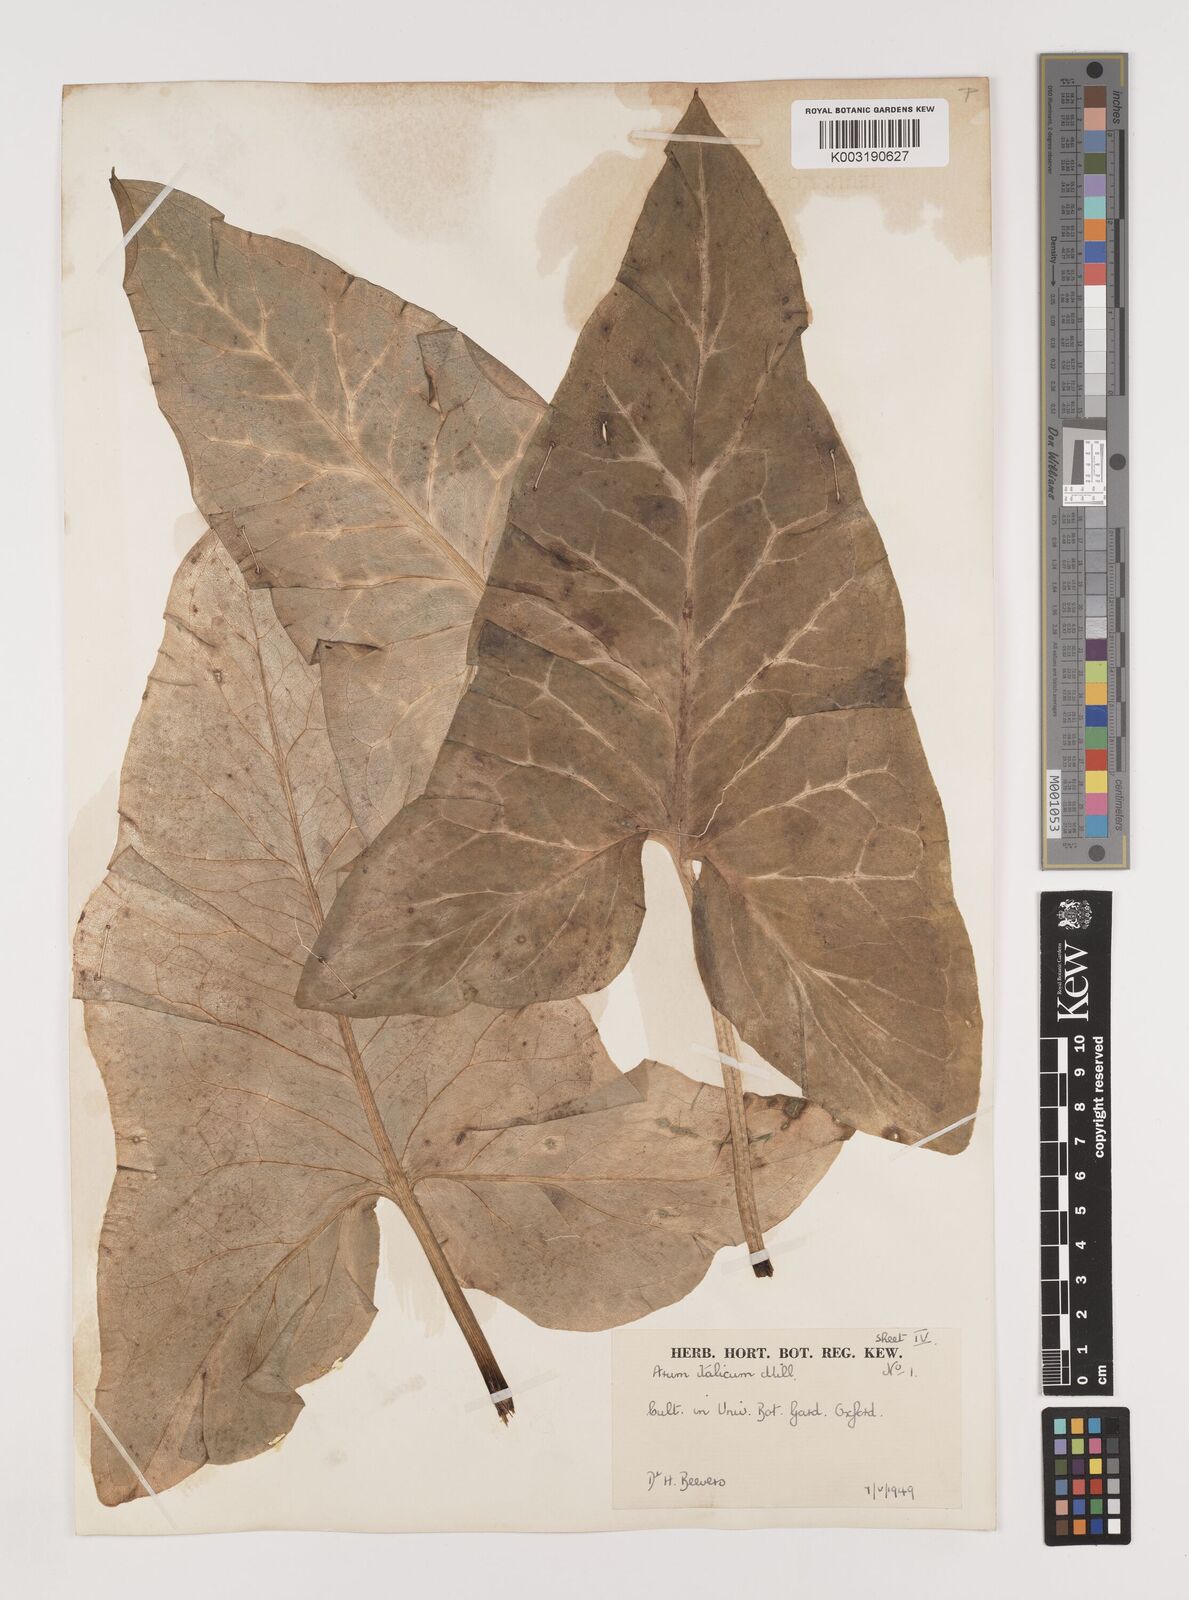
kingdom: Plantae
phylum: Tracheophyta
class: Liliopsida
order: Alismatales
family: Araceae
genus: Arum
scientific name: Arum italicum
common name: Italian lords-and-ladies
